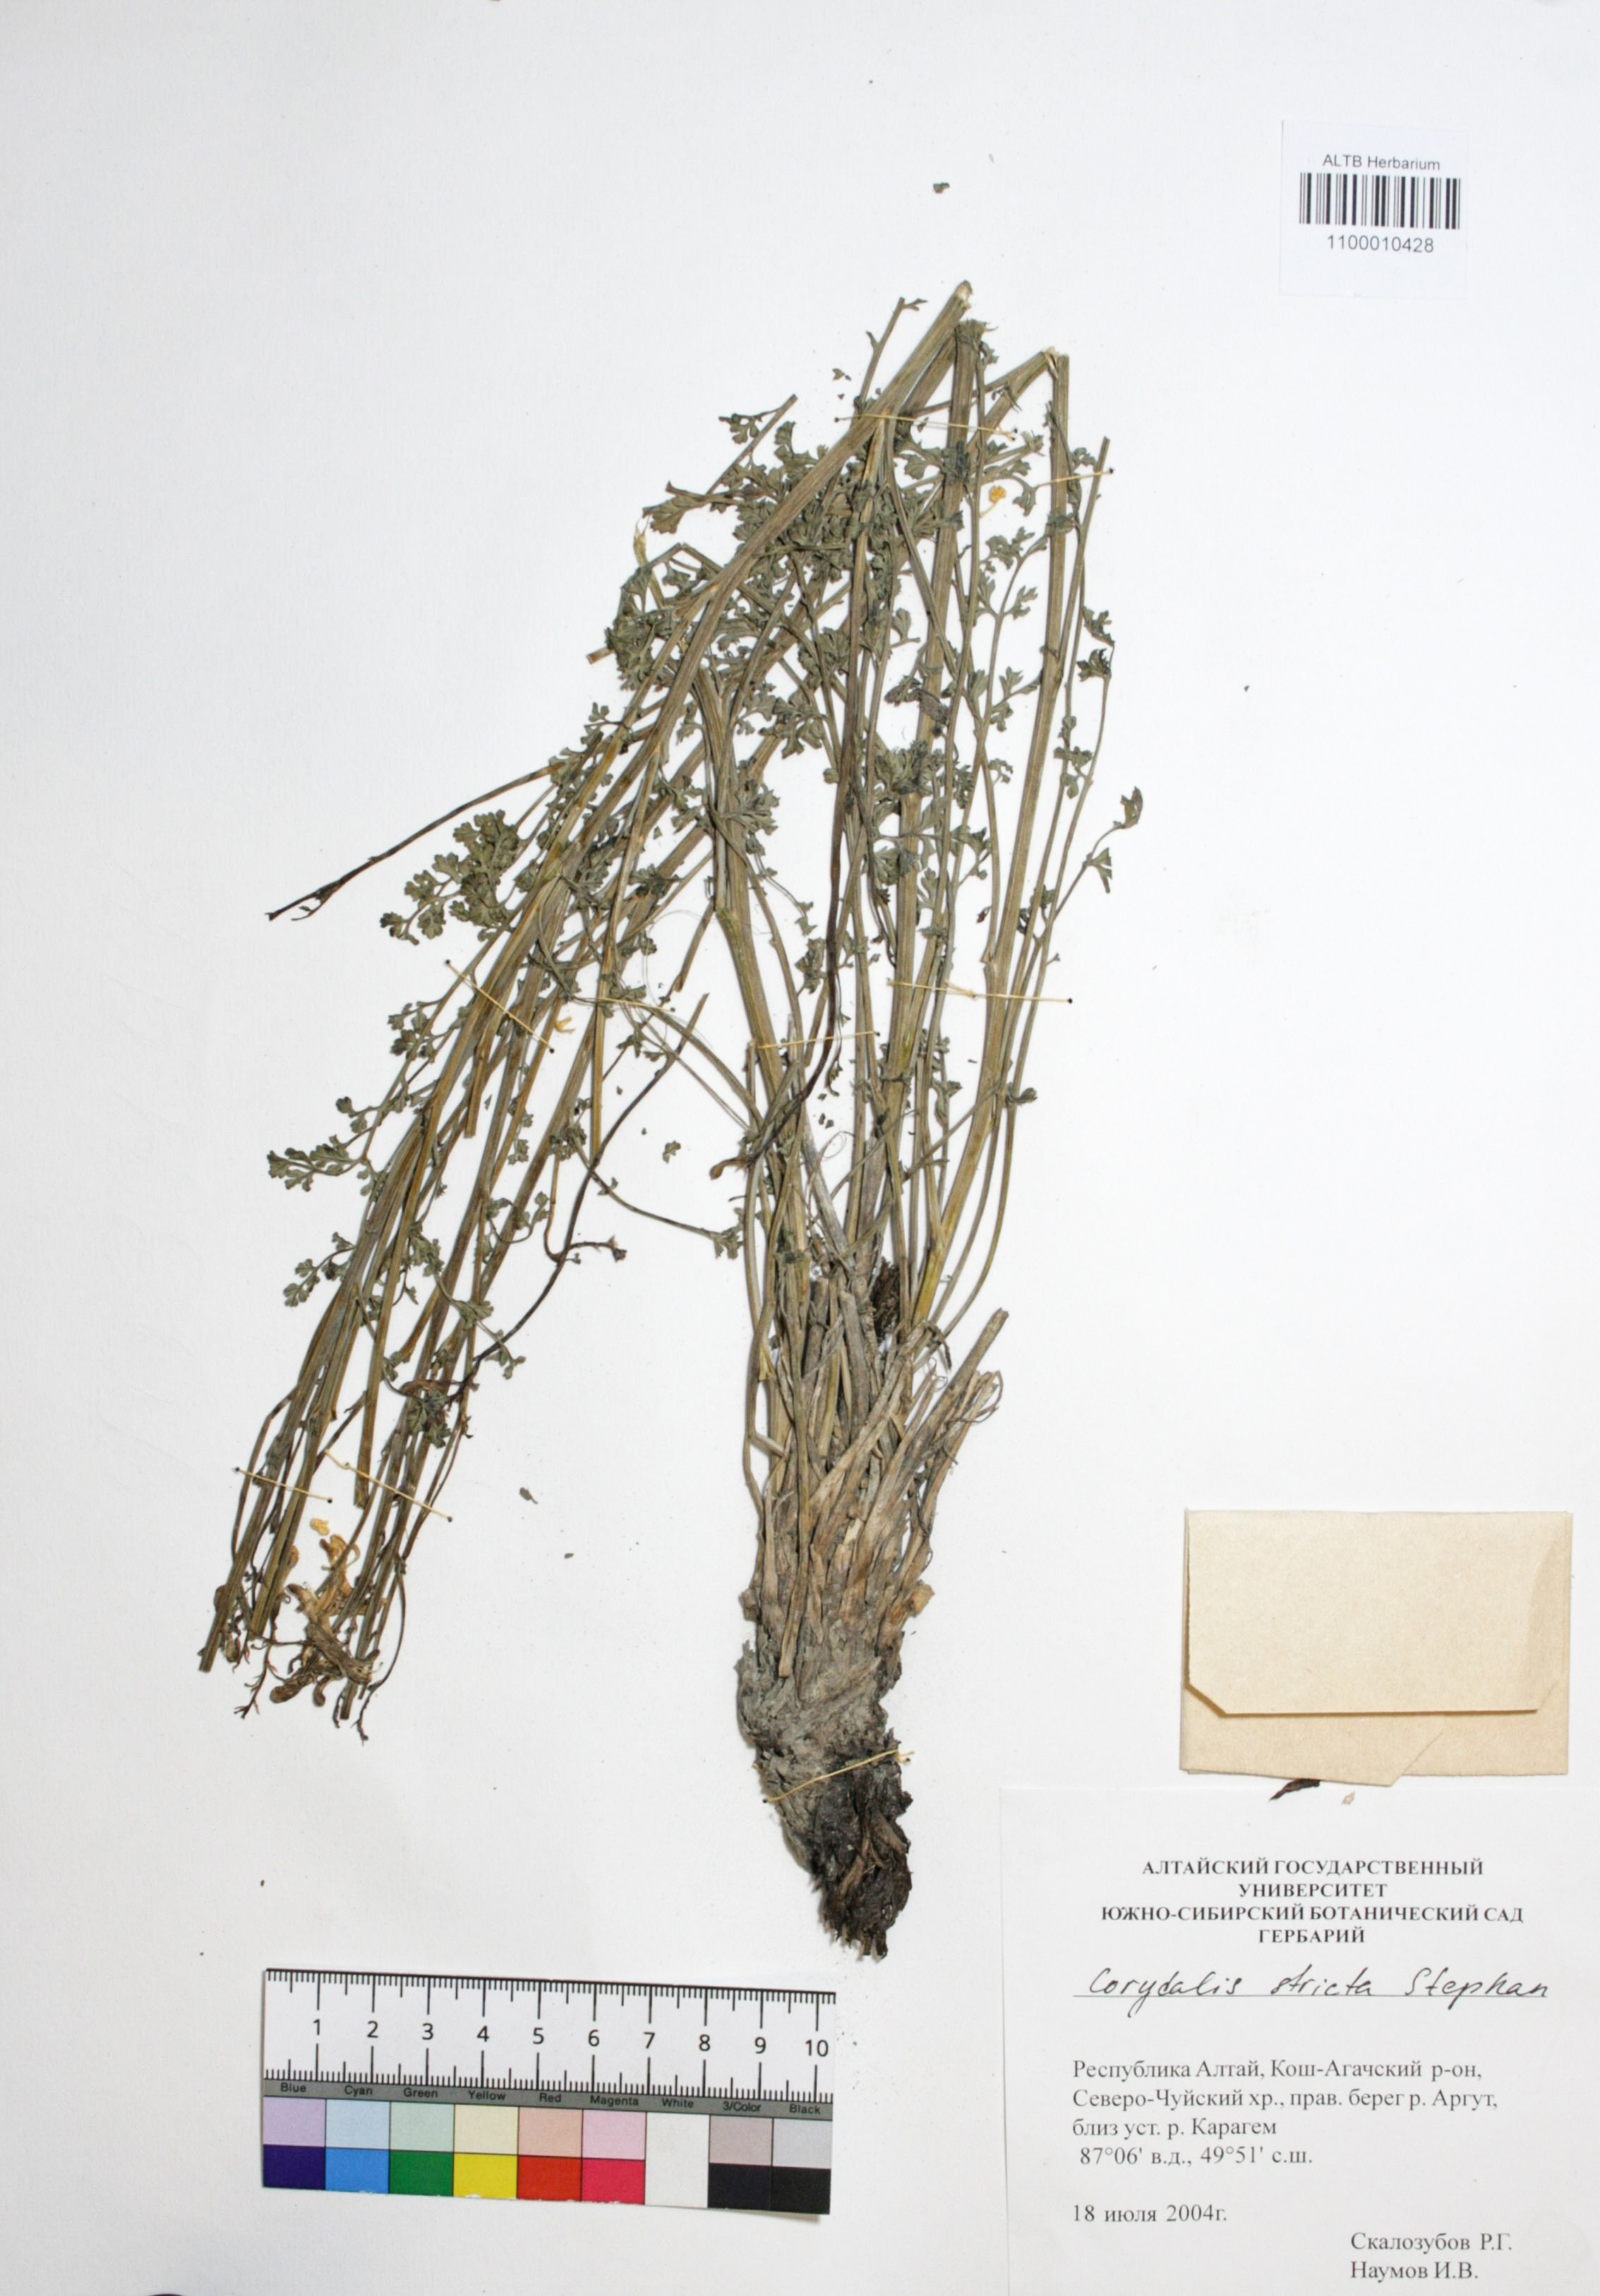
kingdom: Plantae
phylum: Tracheophyta
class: Magnoliopsida
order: Ranunculales
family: Papaveraceae
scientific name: Papaveraceae
